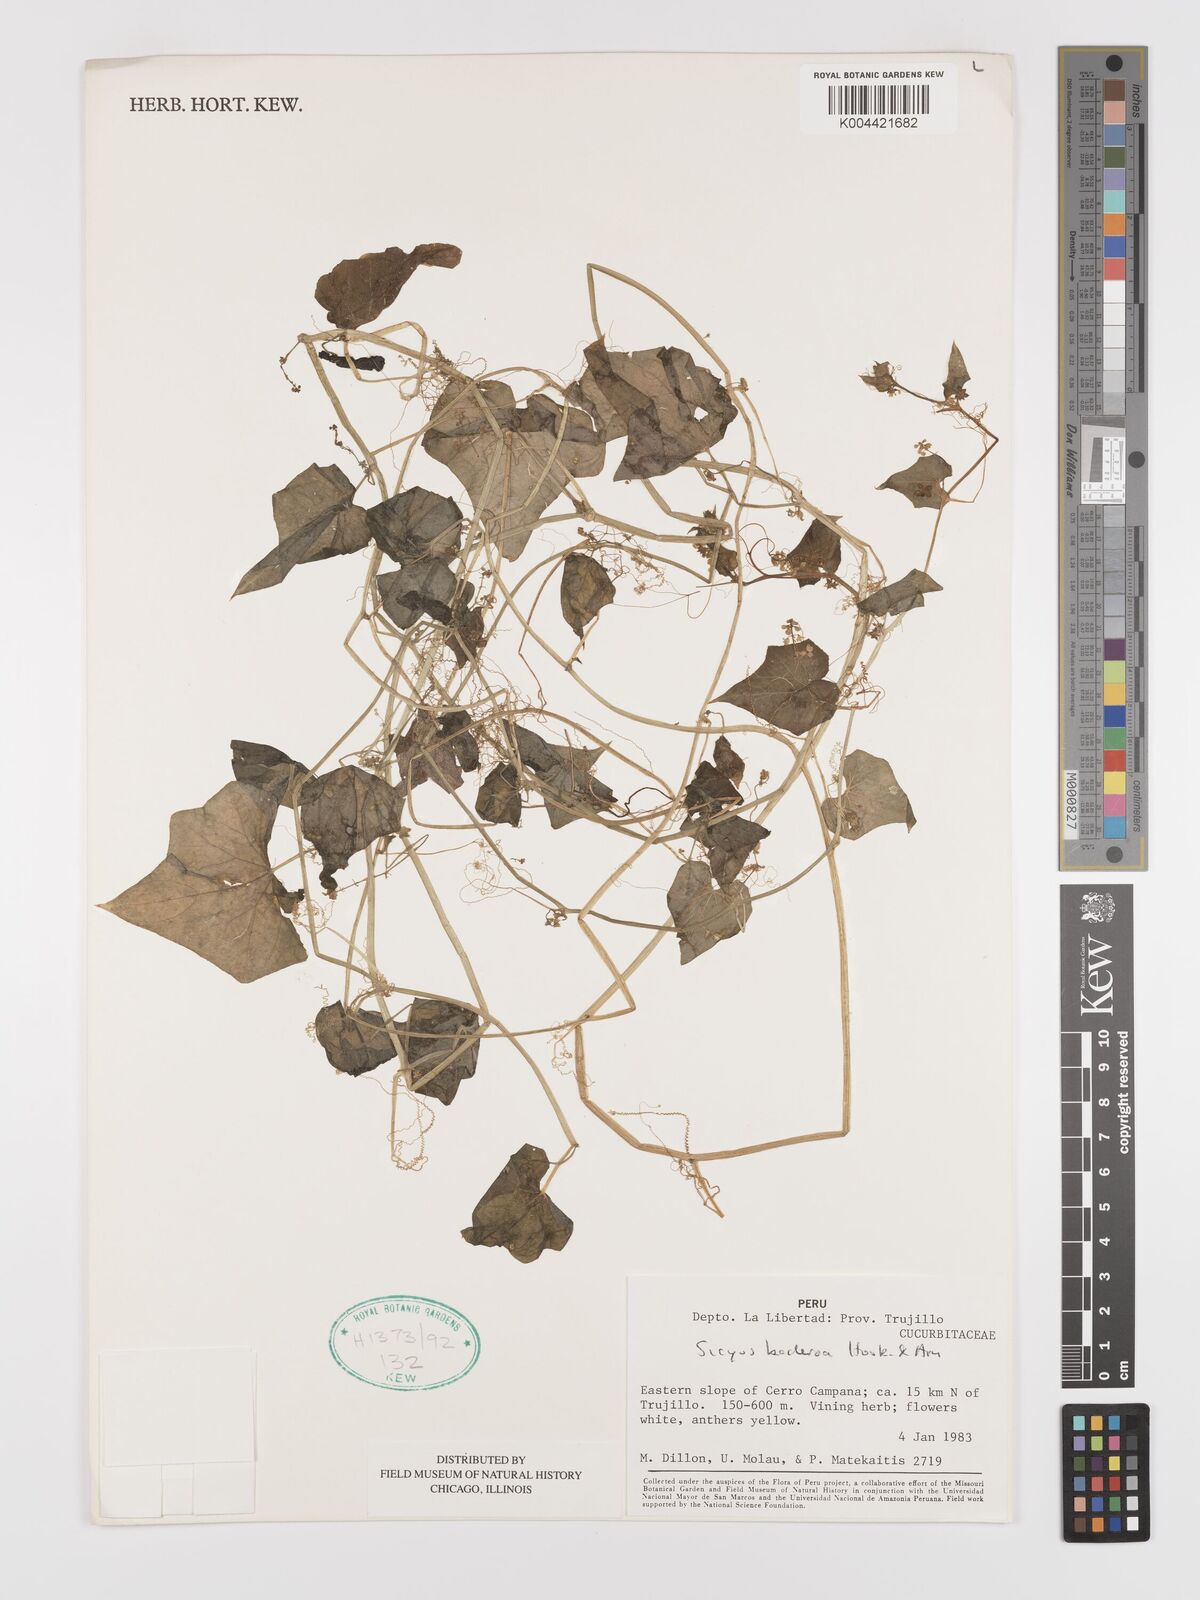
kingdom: Plantae
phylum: Tracheophyta
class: Magnoliopsida
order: Cucurbitales
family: Cucurbitaceae
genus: Sicyos
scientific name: Sicyos baderoa
